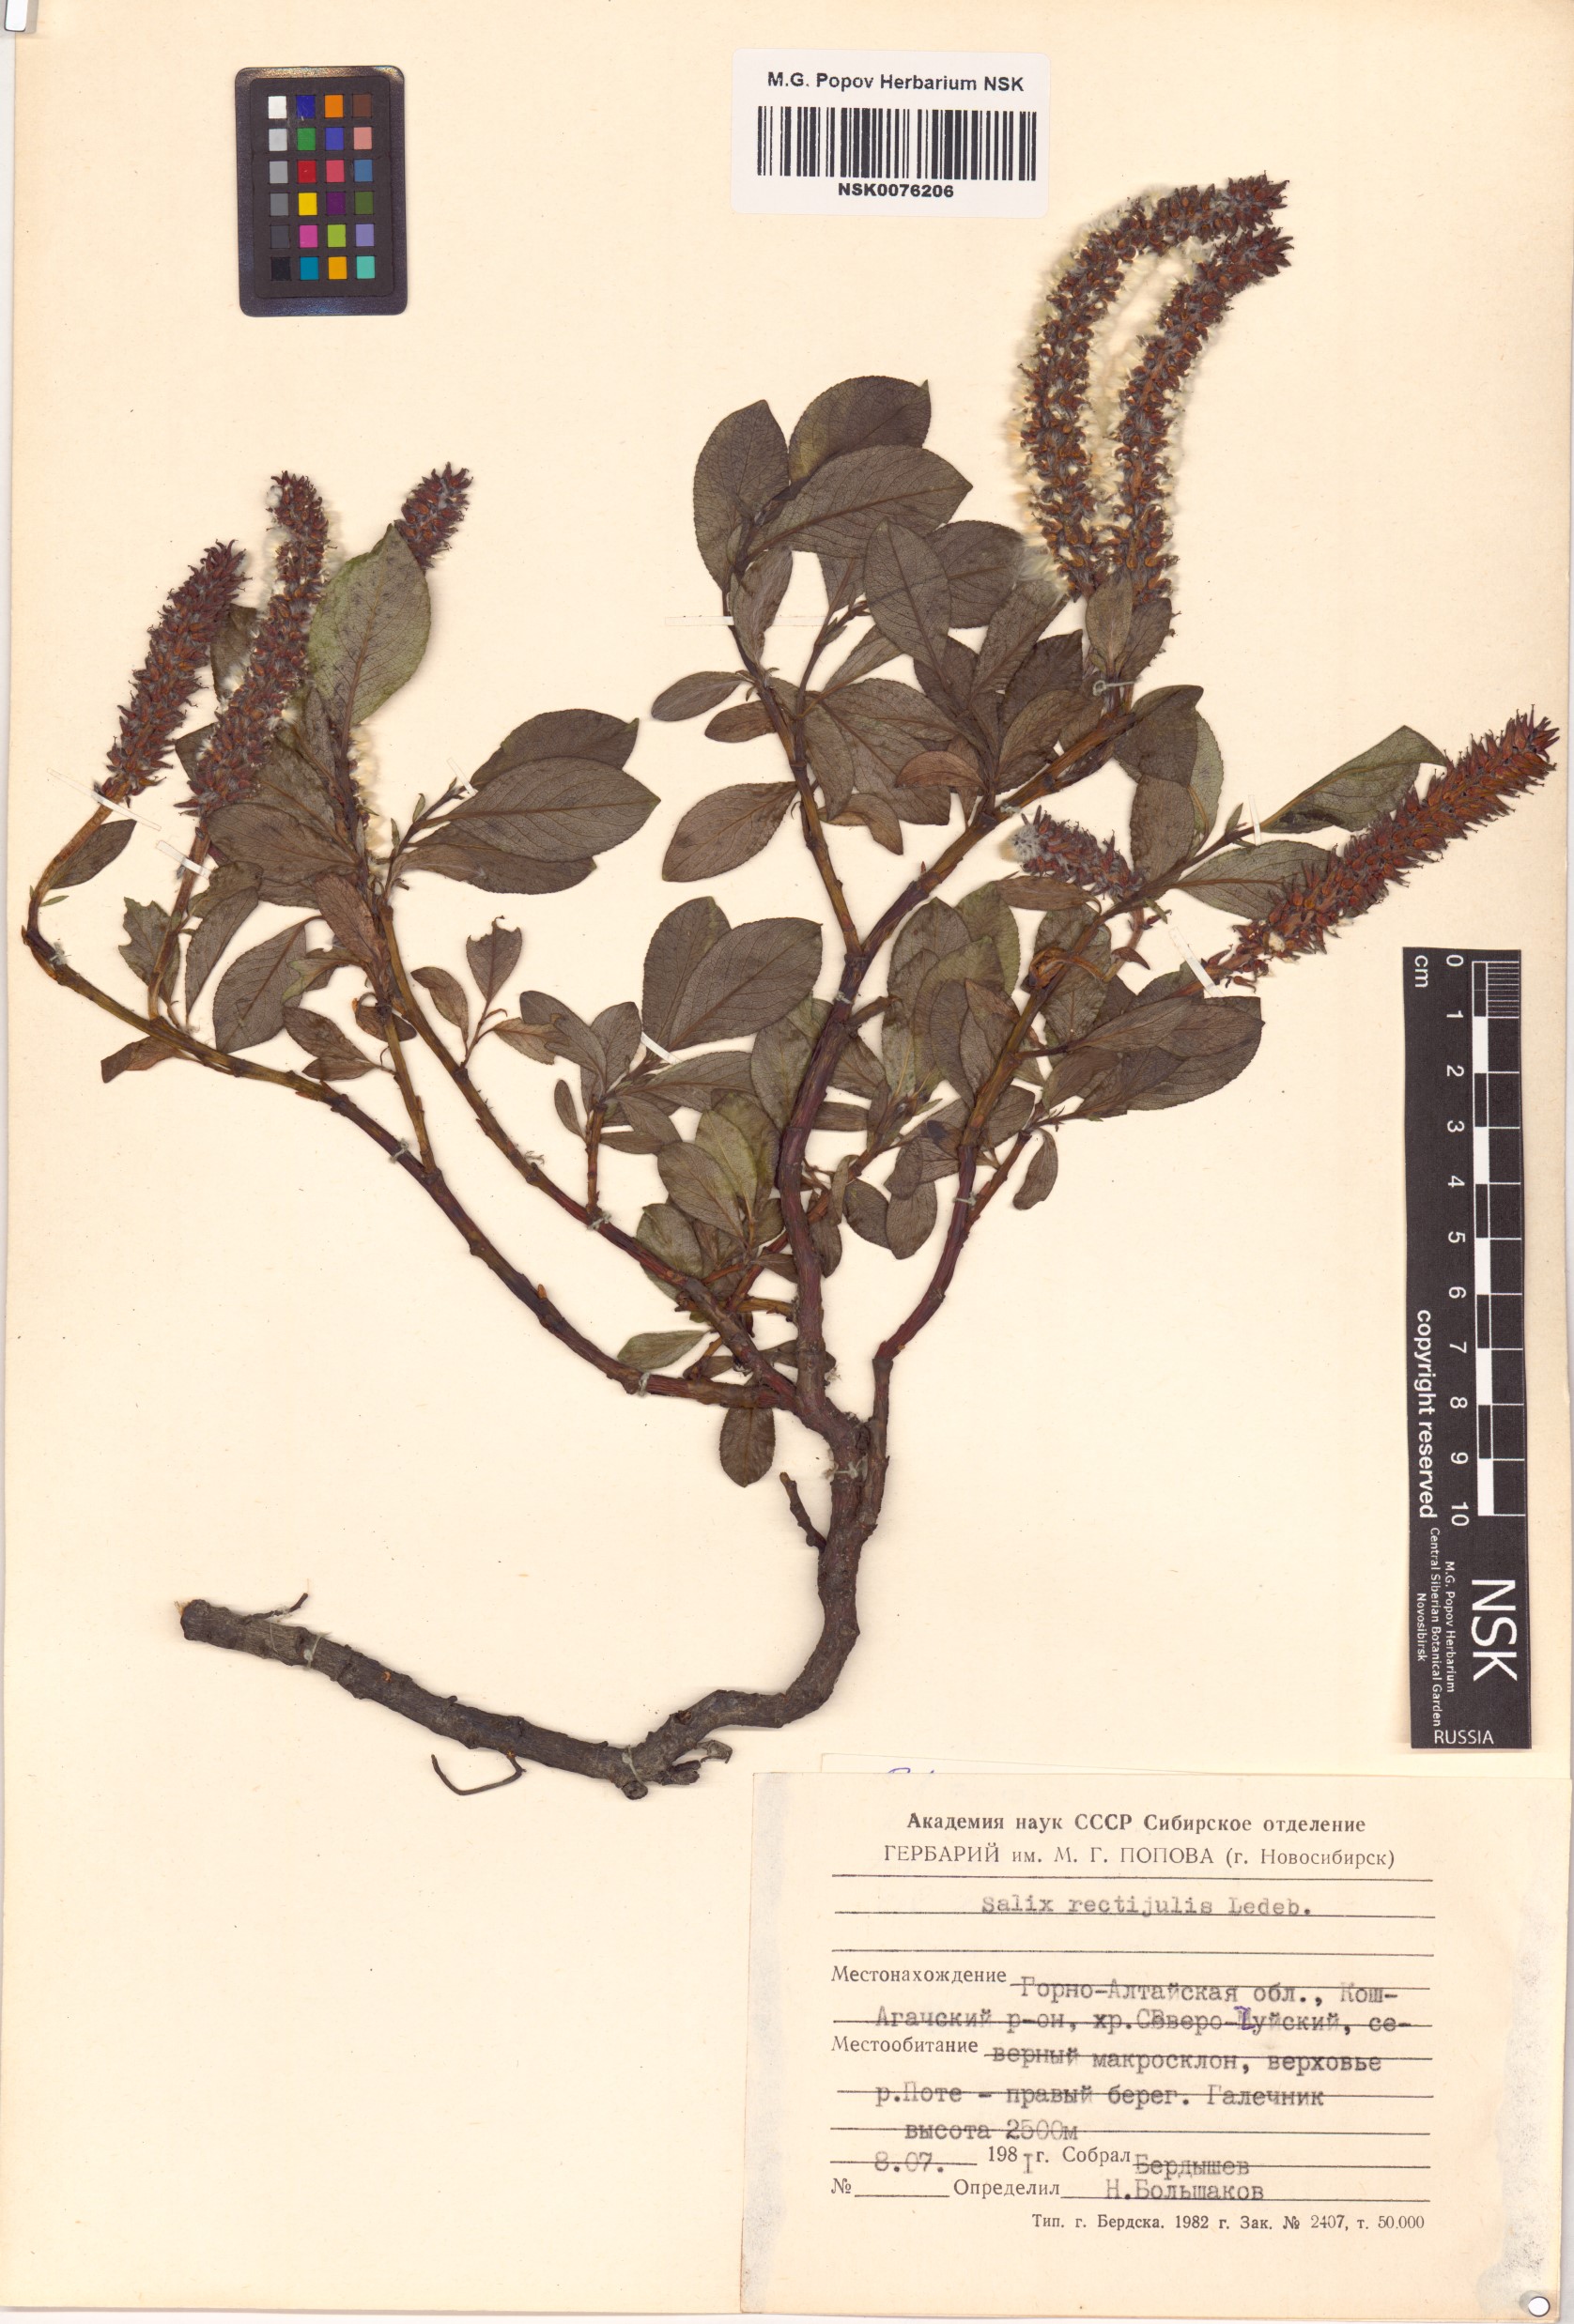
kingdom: Plantae
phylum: Tracheophyta
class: Magnoliopsida
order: Malpighiales
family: Salicaceae
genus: Salix
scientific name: Salix rectijulis
